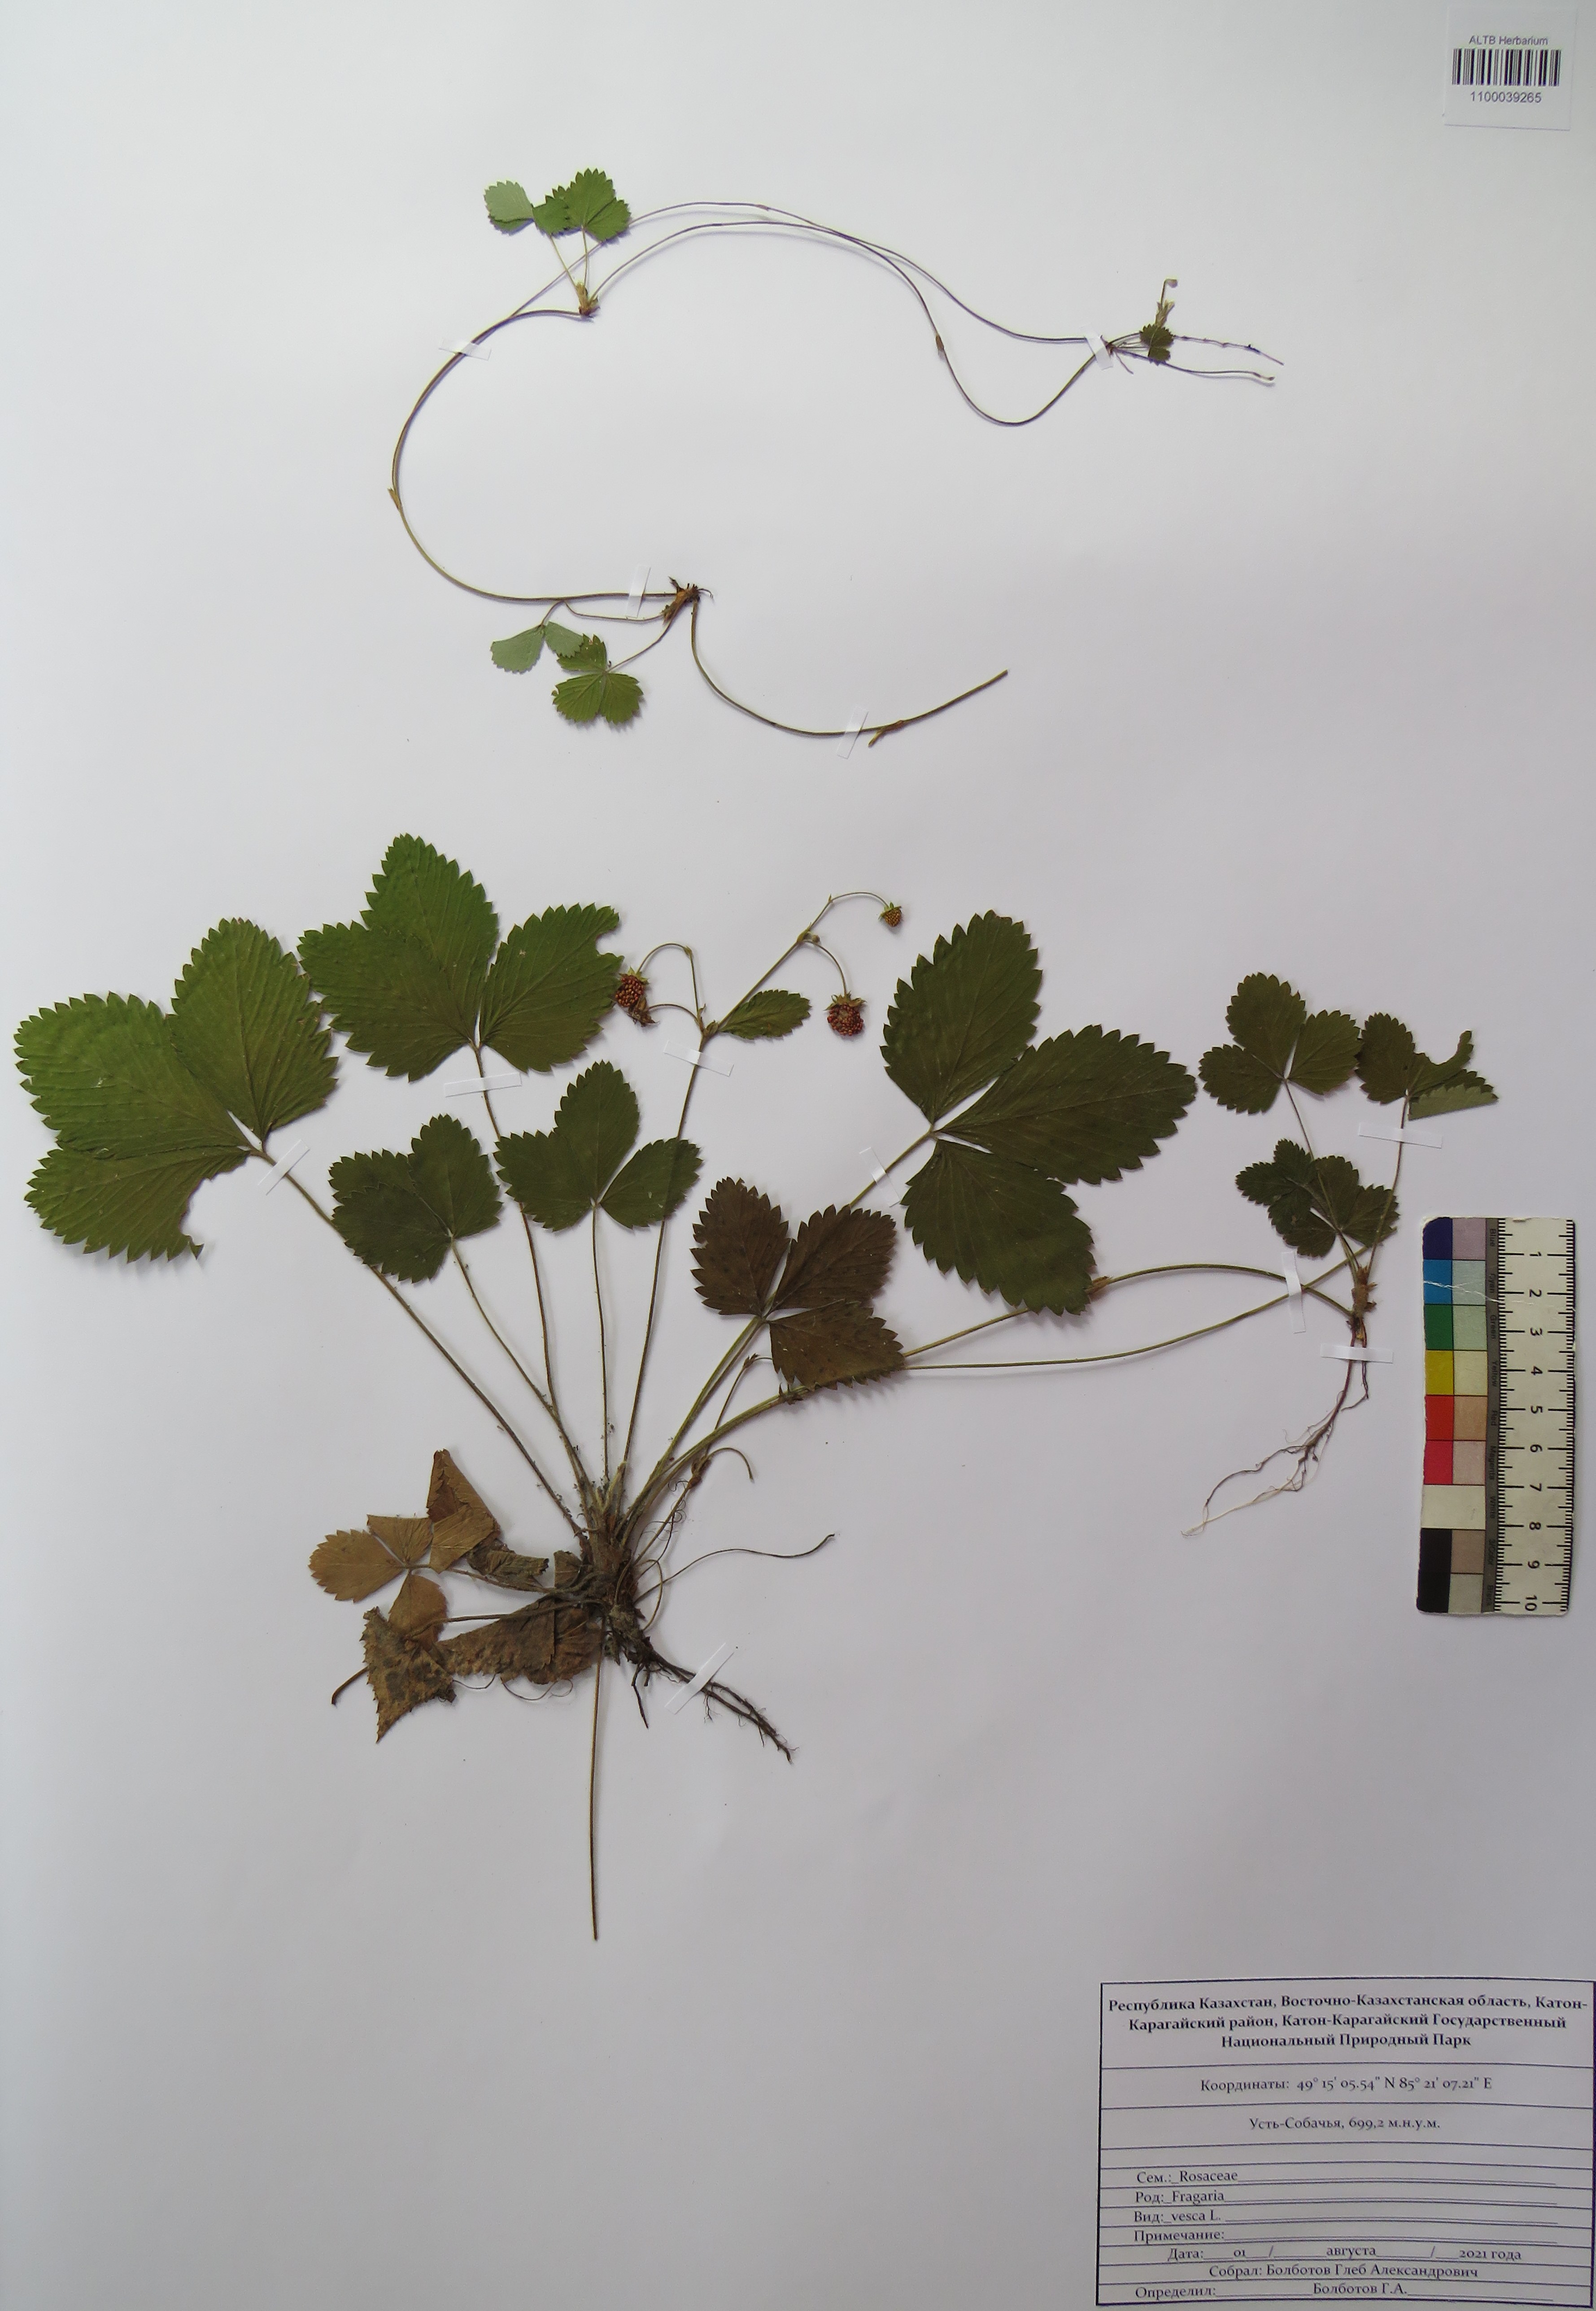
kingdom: Plantae
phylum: Tracheophyta
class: Magnoliopsida
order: Rosales
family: Rosaceae
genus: Fragaria
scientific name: Fragaria vesca
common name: Wild strawberry
